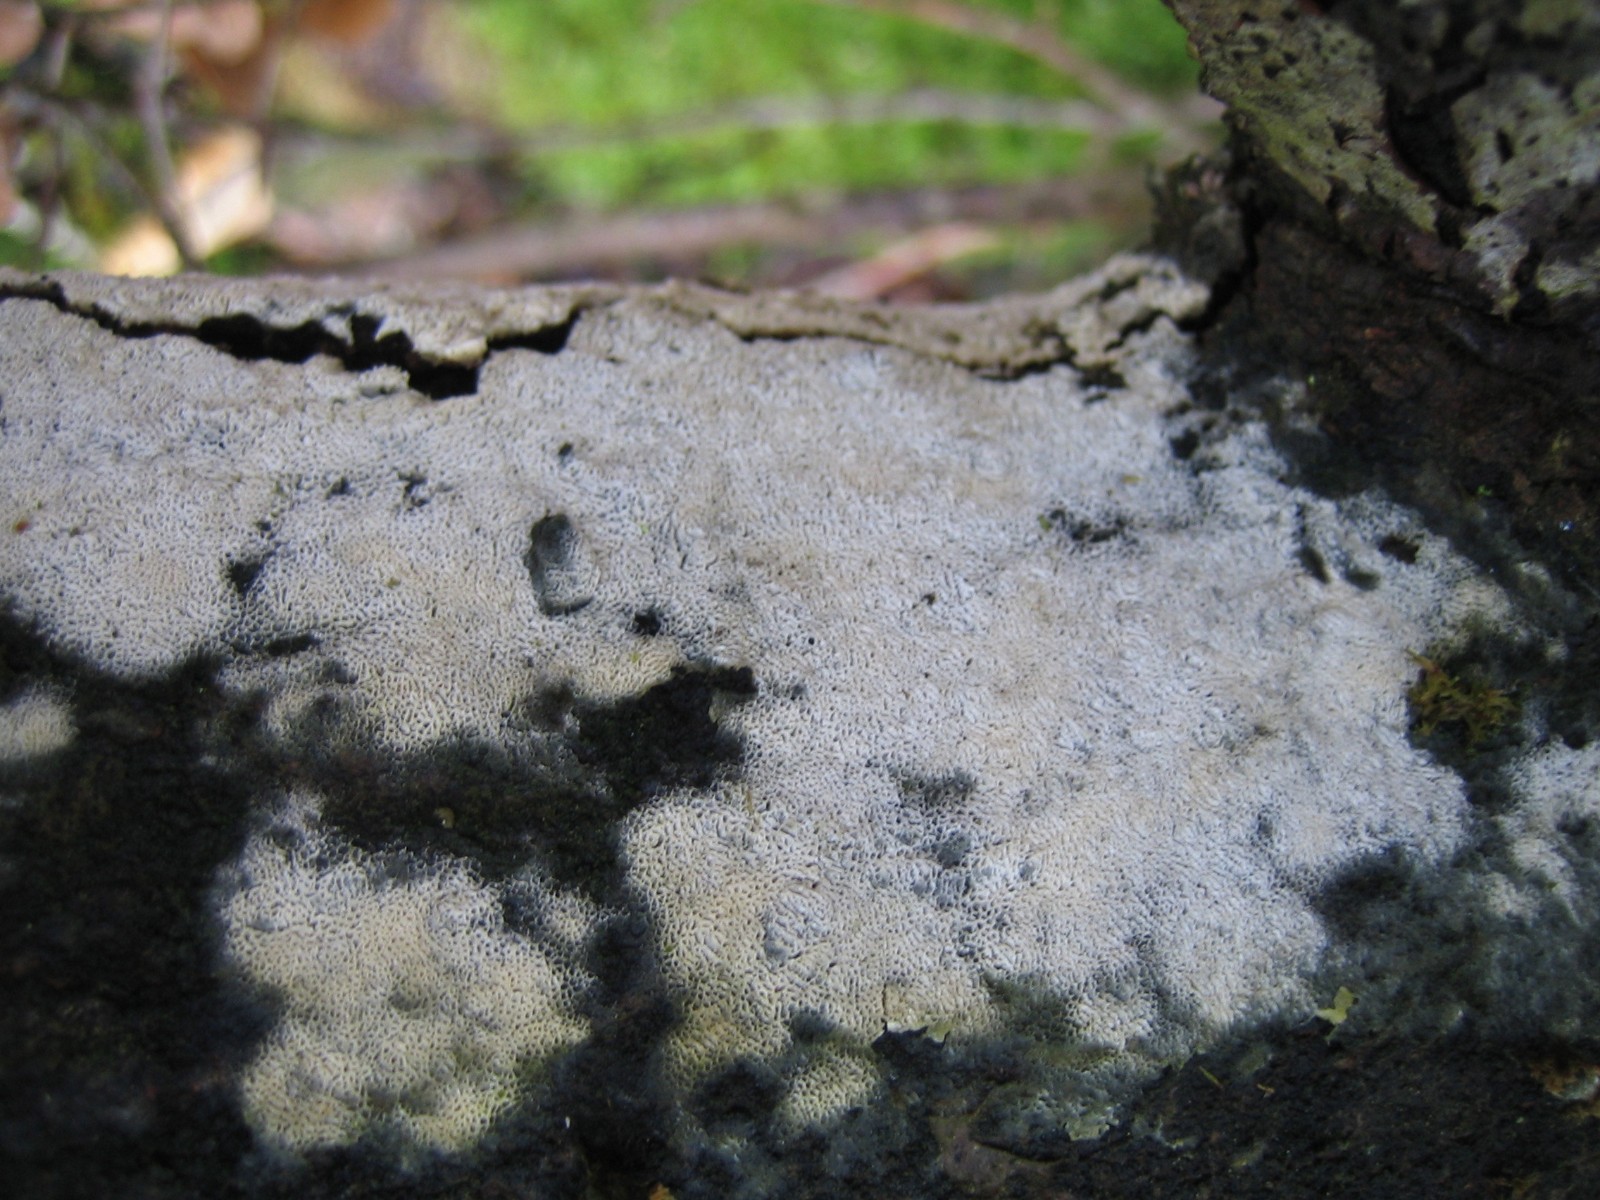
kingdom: Fungi
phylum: Basidiomycota
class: Agaricomycetes
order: Hymenochaetales
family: Schizoporaceae
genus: Xylodon
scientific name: Xylodon subtropicus
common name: labyrint-tandsvamp
